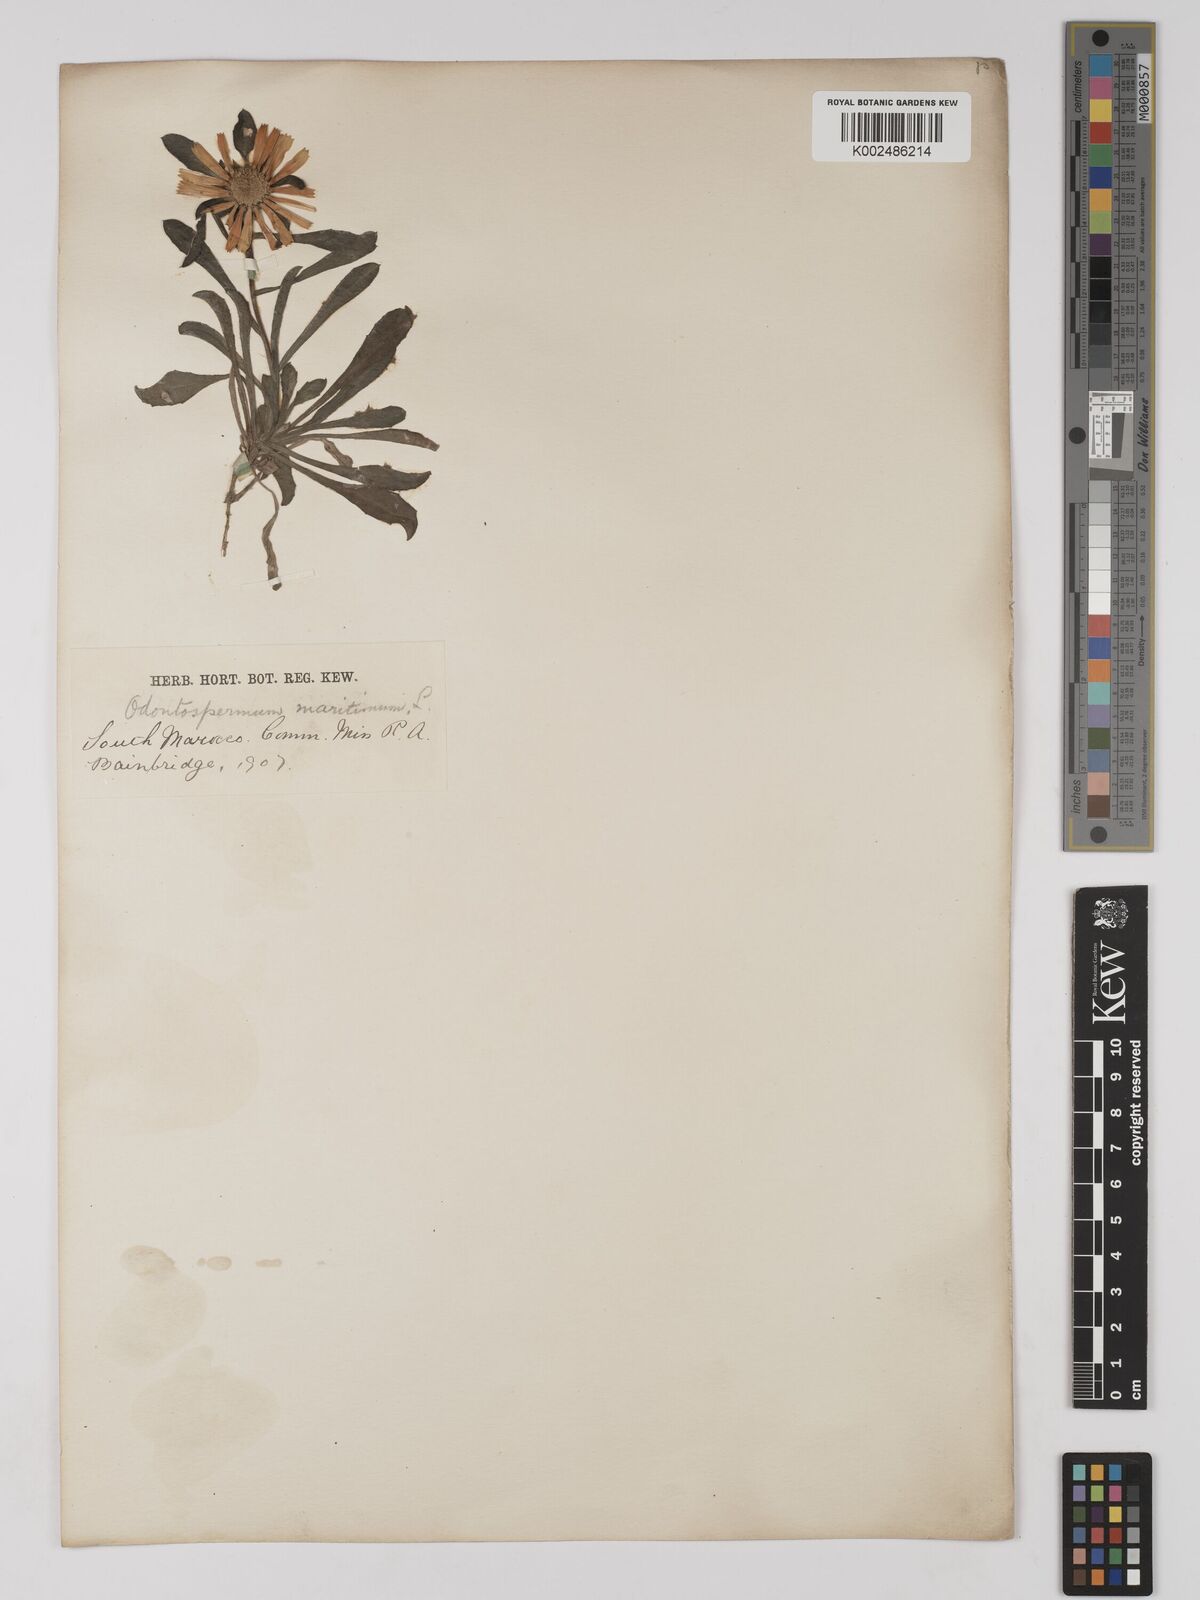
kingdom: Plantae
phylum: Tracheophyta
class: Magnoliopsida
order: Asterales
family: Asteraceae
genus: Pallenis
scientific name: Pallenis maritima
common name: Golden coin daisy
